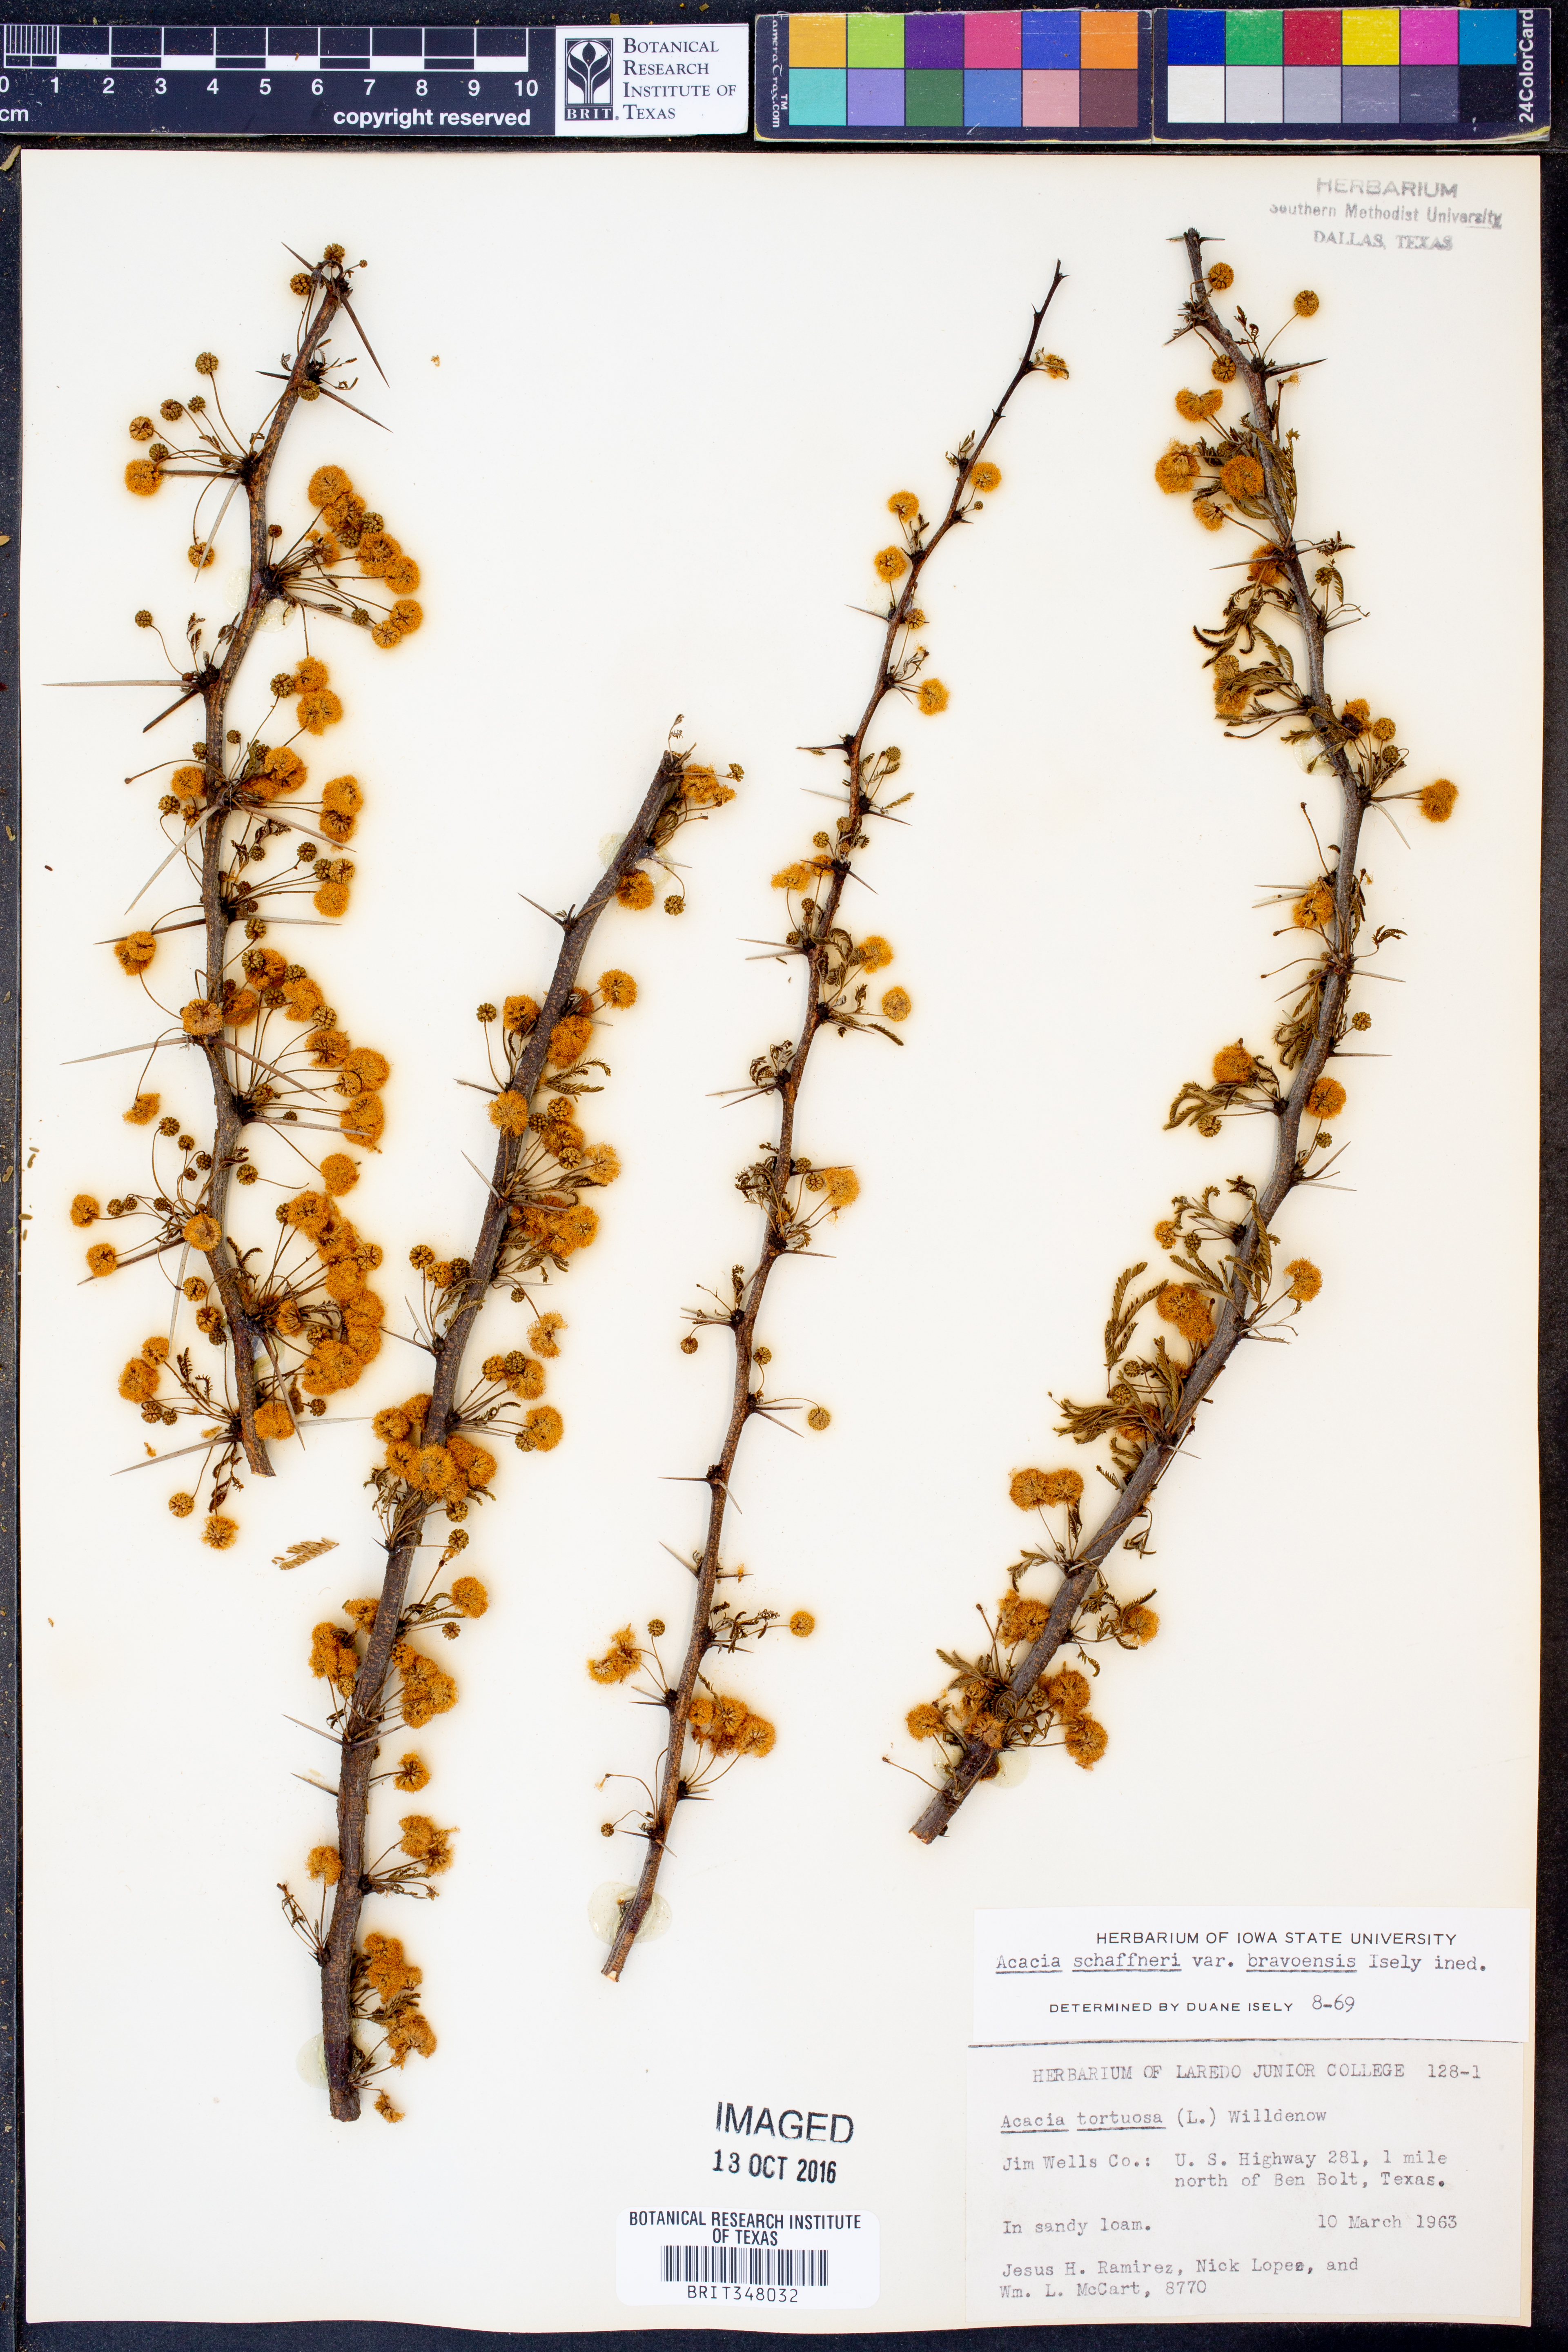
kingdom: Plantae
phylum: Tracheophyta
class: Magnoliopsida
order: Fabales
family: Fabaceae
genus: Vachellia
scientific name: Vachellia bravoensis
